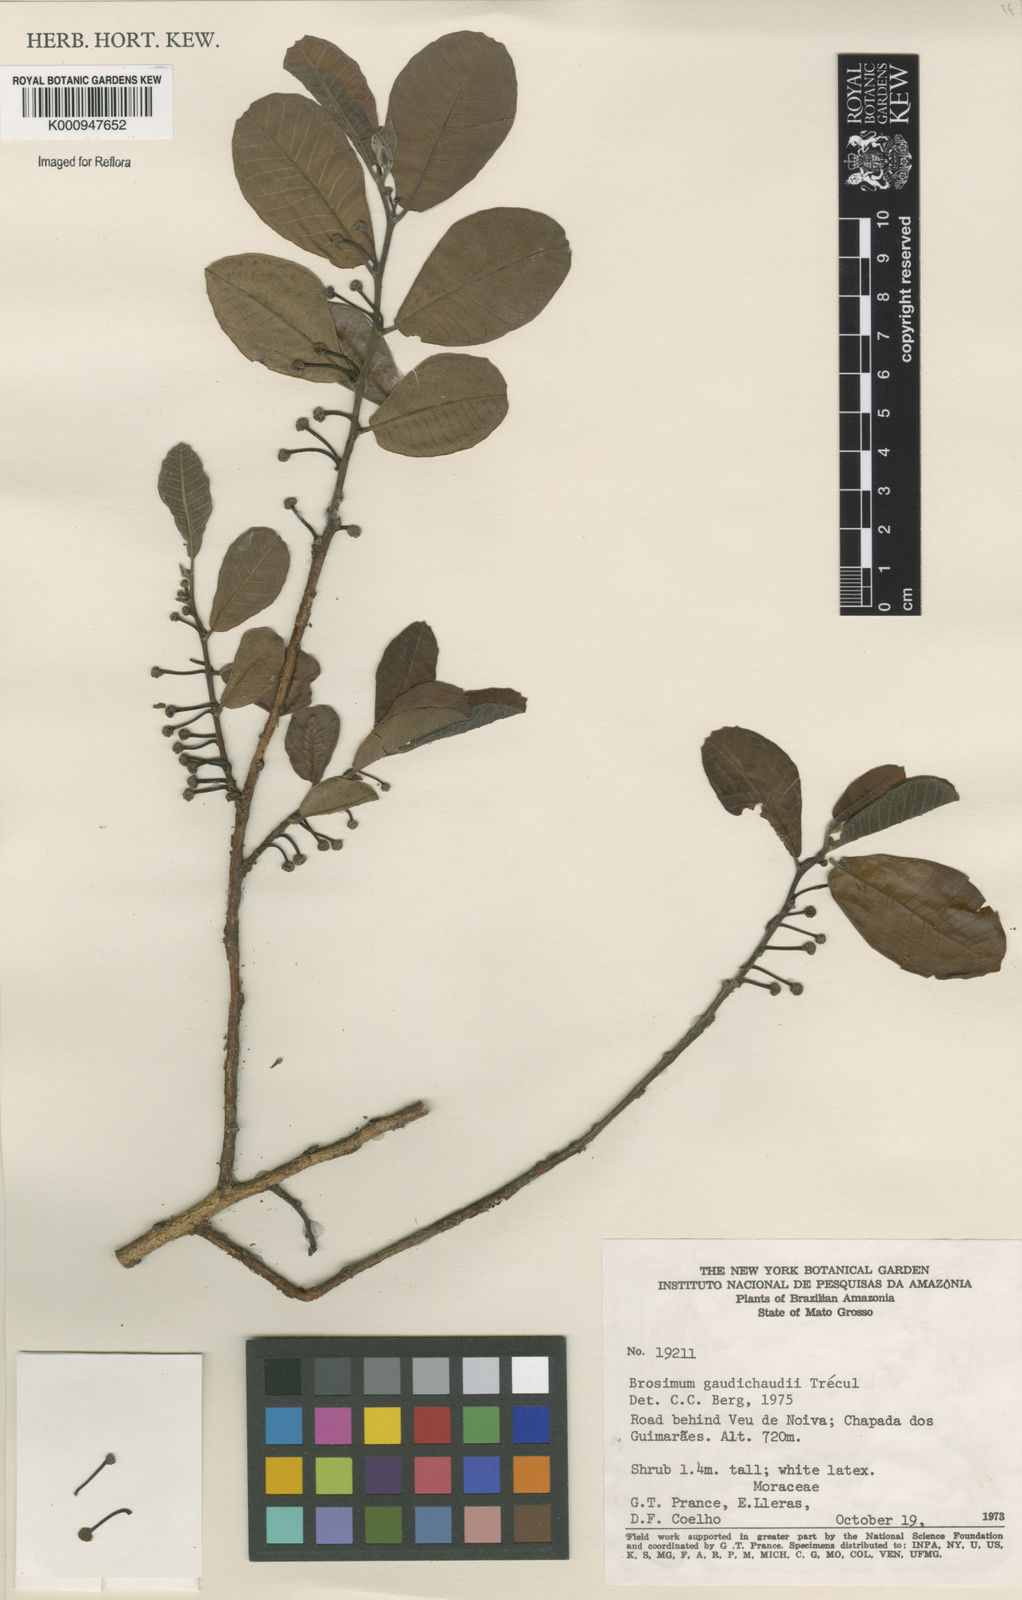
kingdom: Plantae
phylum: Tracheophyta
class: Magnoliopsida
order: Rosales
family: Moraceae
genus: Brosimum
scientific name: Brosimum
